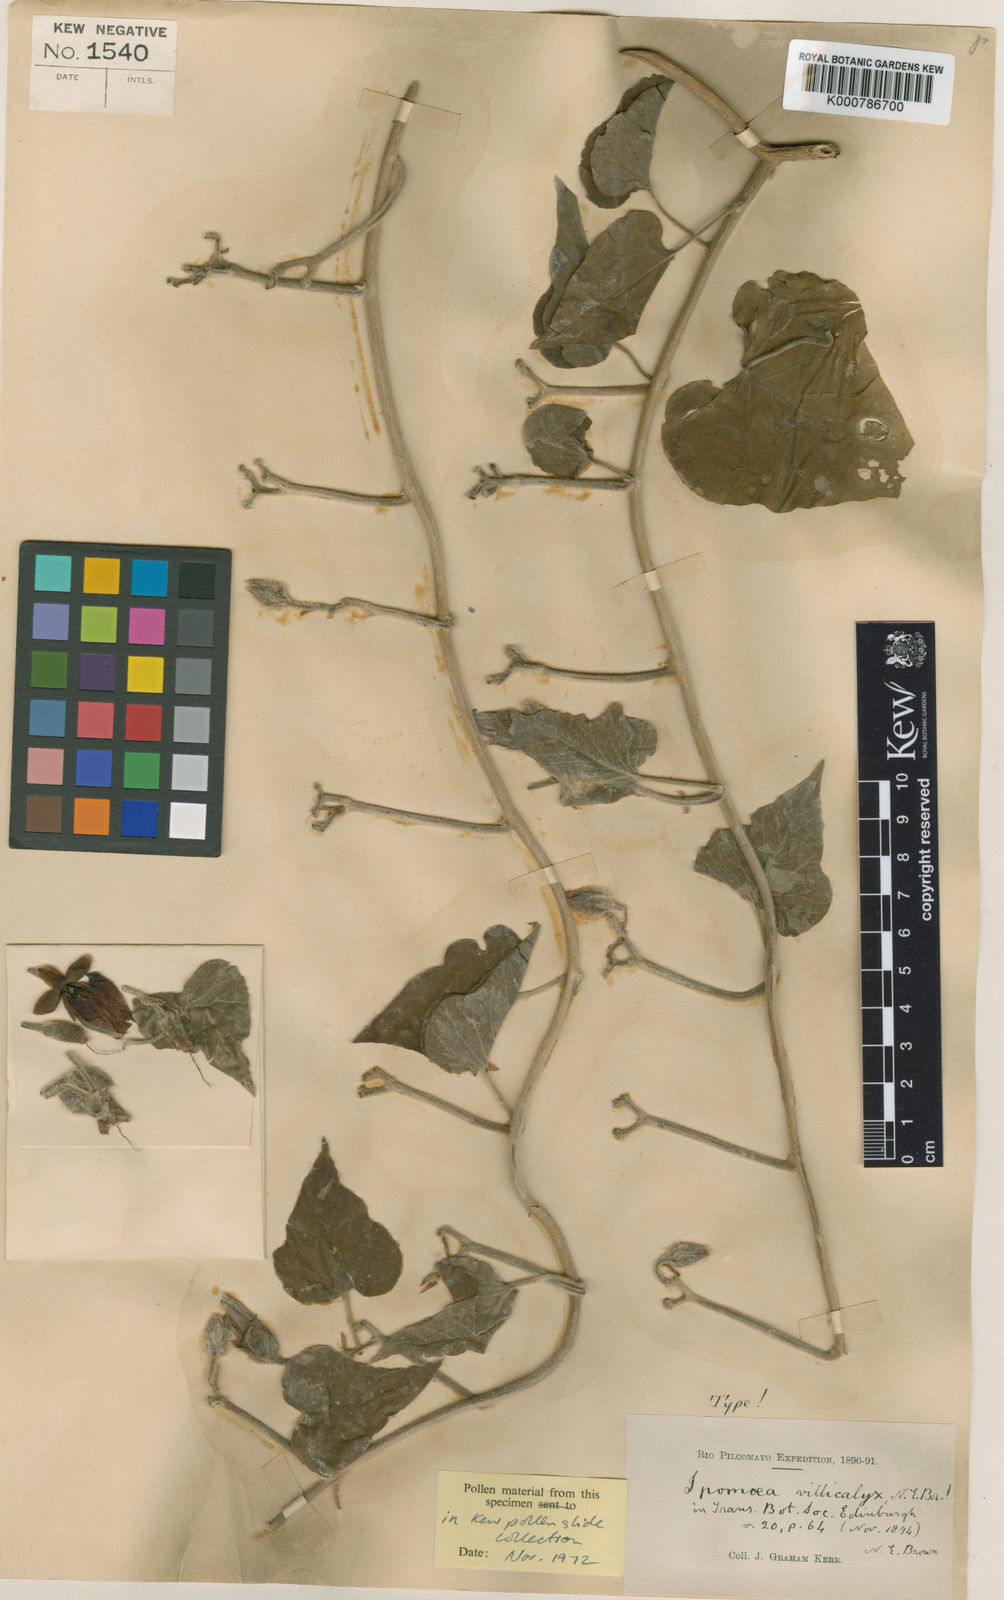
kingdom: Plantae
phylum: Tracheophyta
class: Magnoliopsida
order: Solanales
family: Convolvulaceae
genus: Ipomoea
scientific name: Ipomoea rubens
